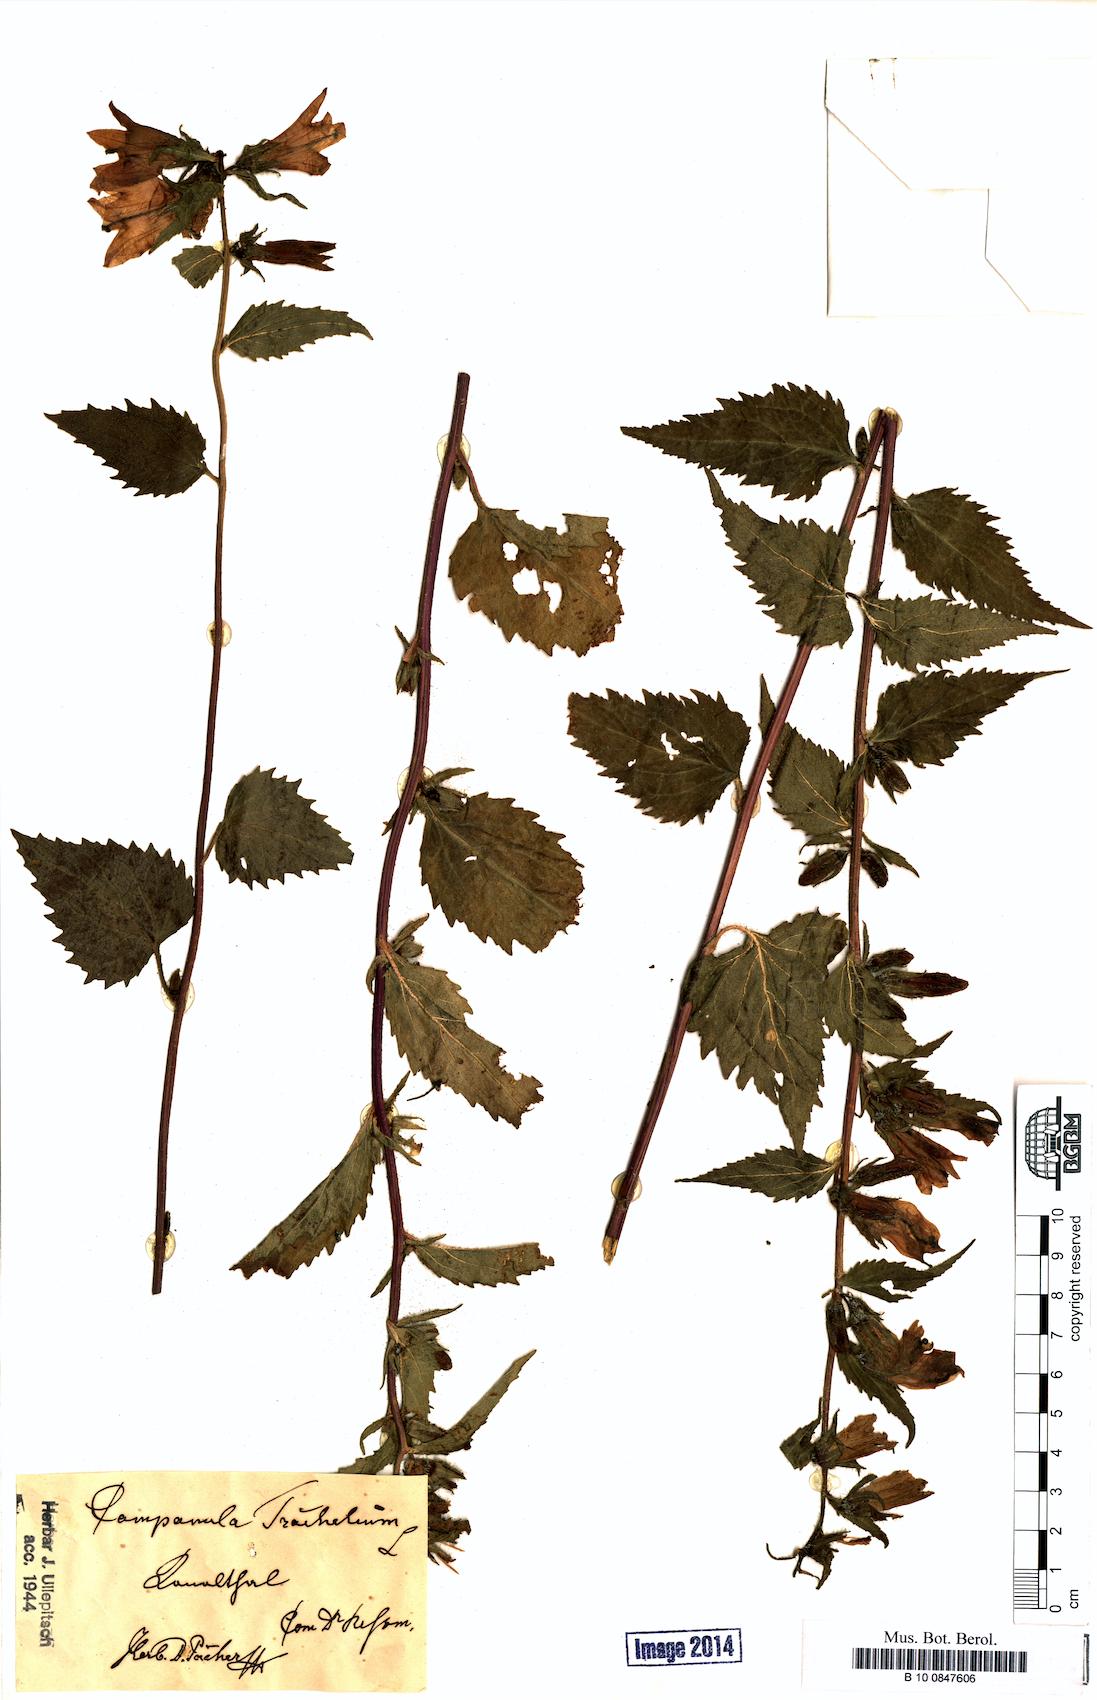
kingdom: Plantae
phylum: Tracheophyta
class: Magnoliopsida
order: Asterales
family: Campanulaceae
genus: Campanula
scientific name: Campanula trachelium
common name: Nettle-leaved bellflower
